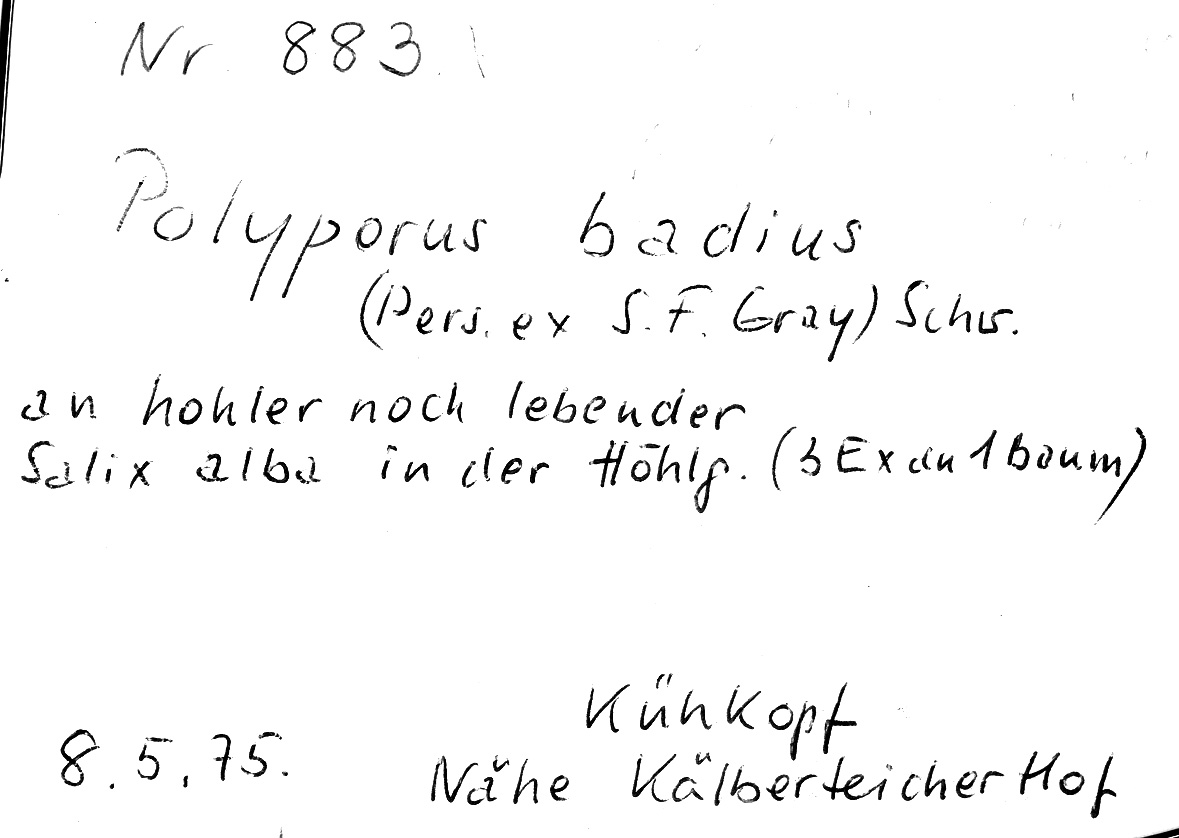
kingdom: Fungi
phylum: Basidiomycota
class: Agaricomycetes
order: Polyporales
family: Polyporaceae
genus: Picipes
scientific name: Picipes badius
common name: Bay polypore
